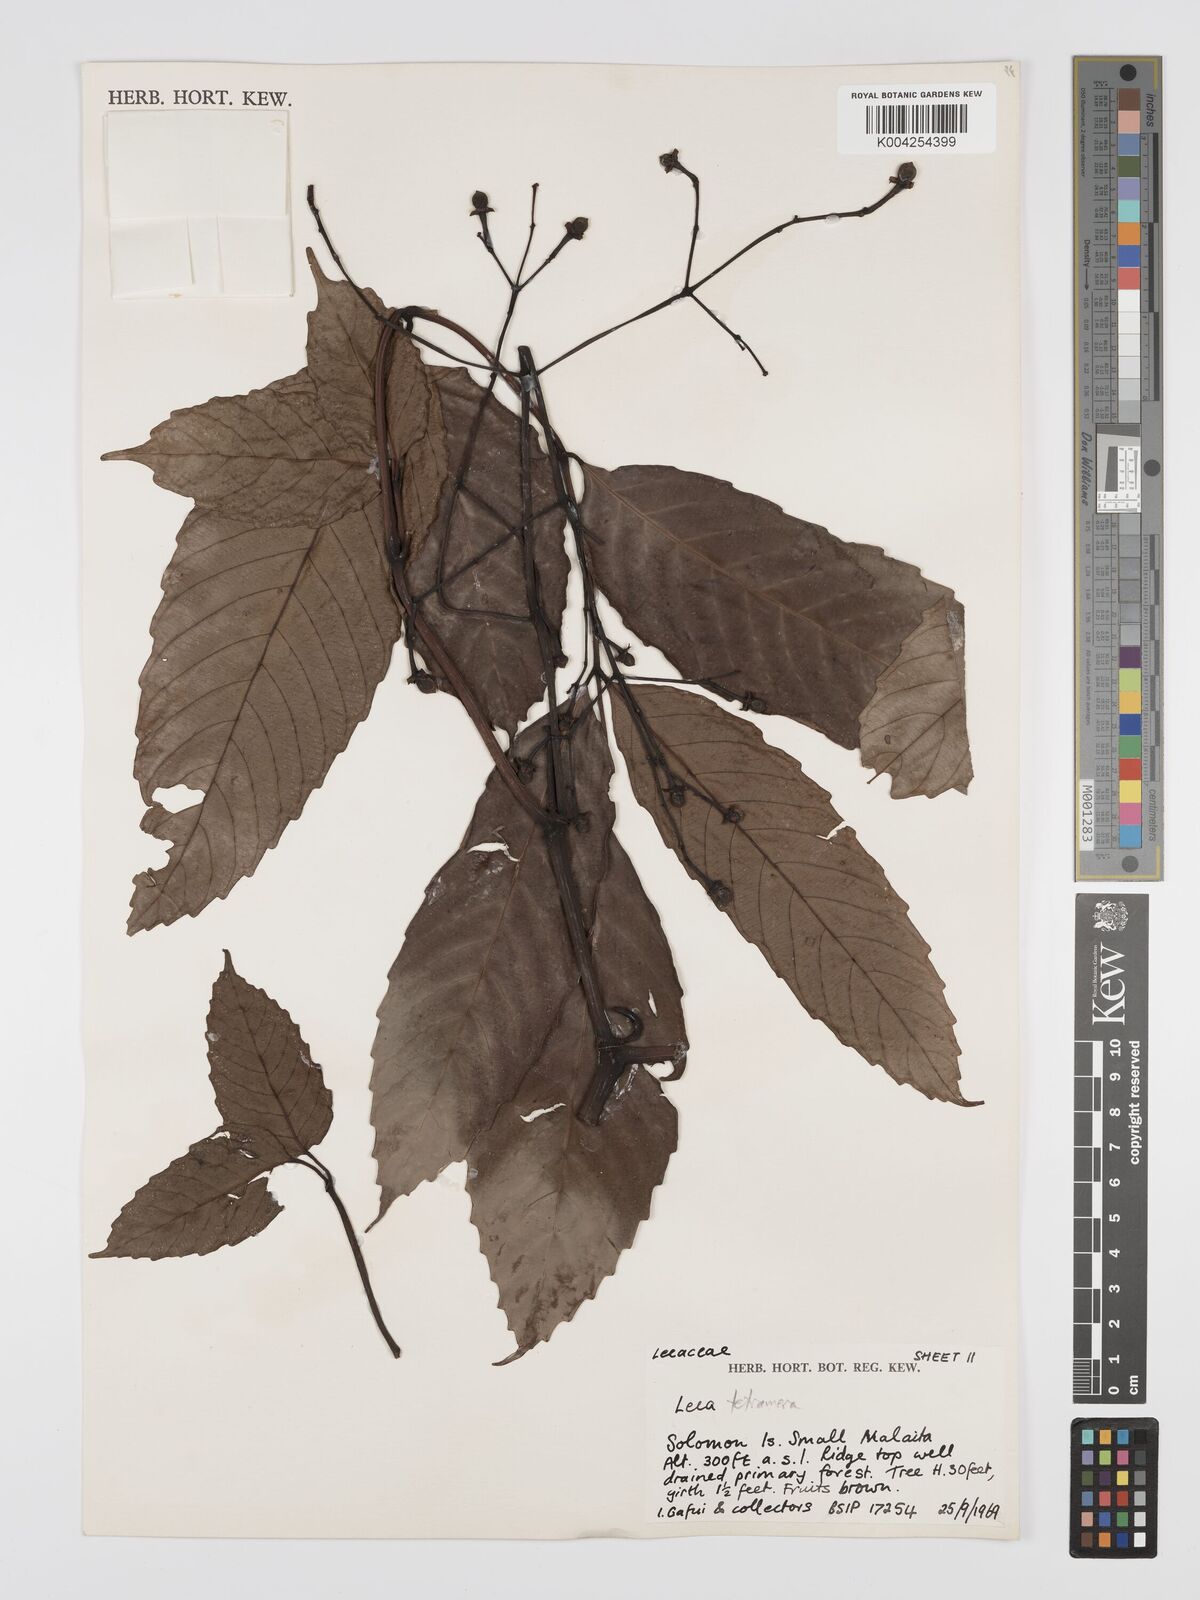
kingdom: Plantae
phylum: Tracheophyta
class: Magnoliopsida
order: Vitales
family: Vitaceae
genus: Leea
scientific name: Leea tetramera
